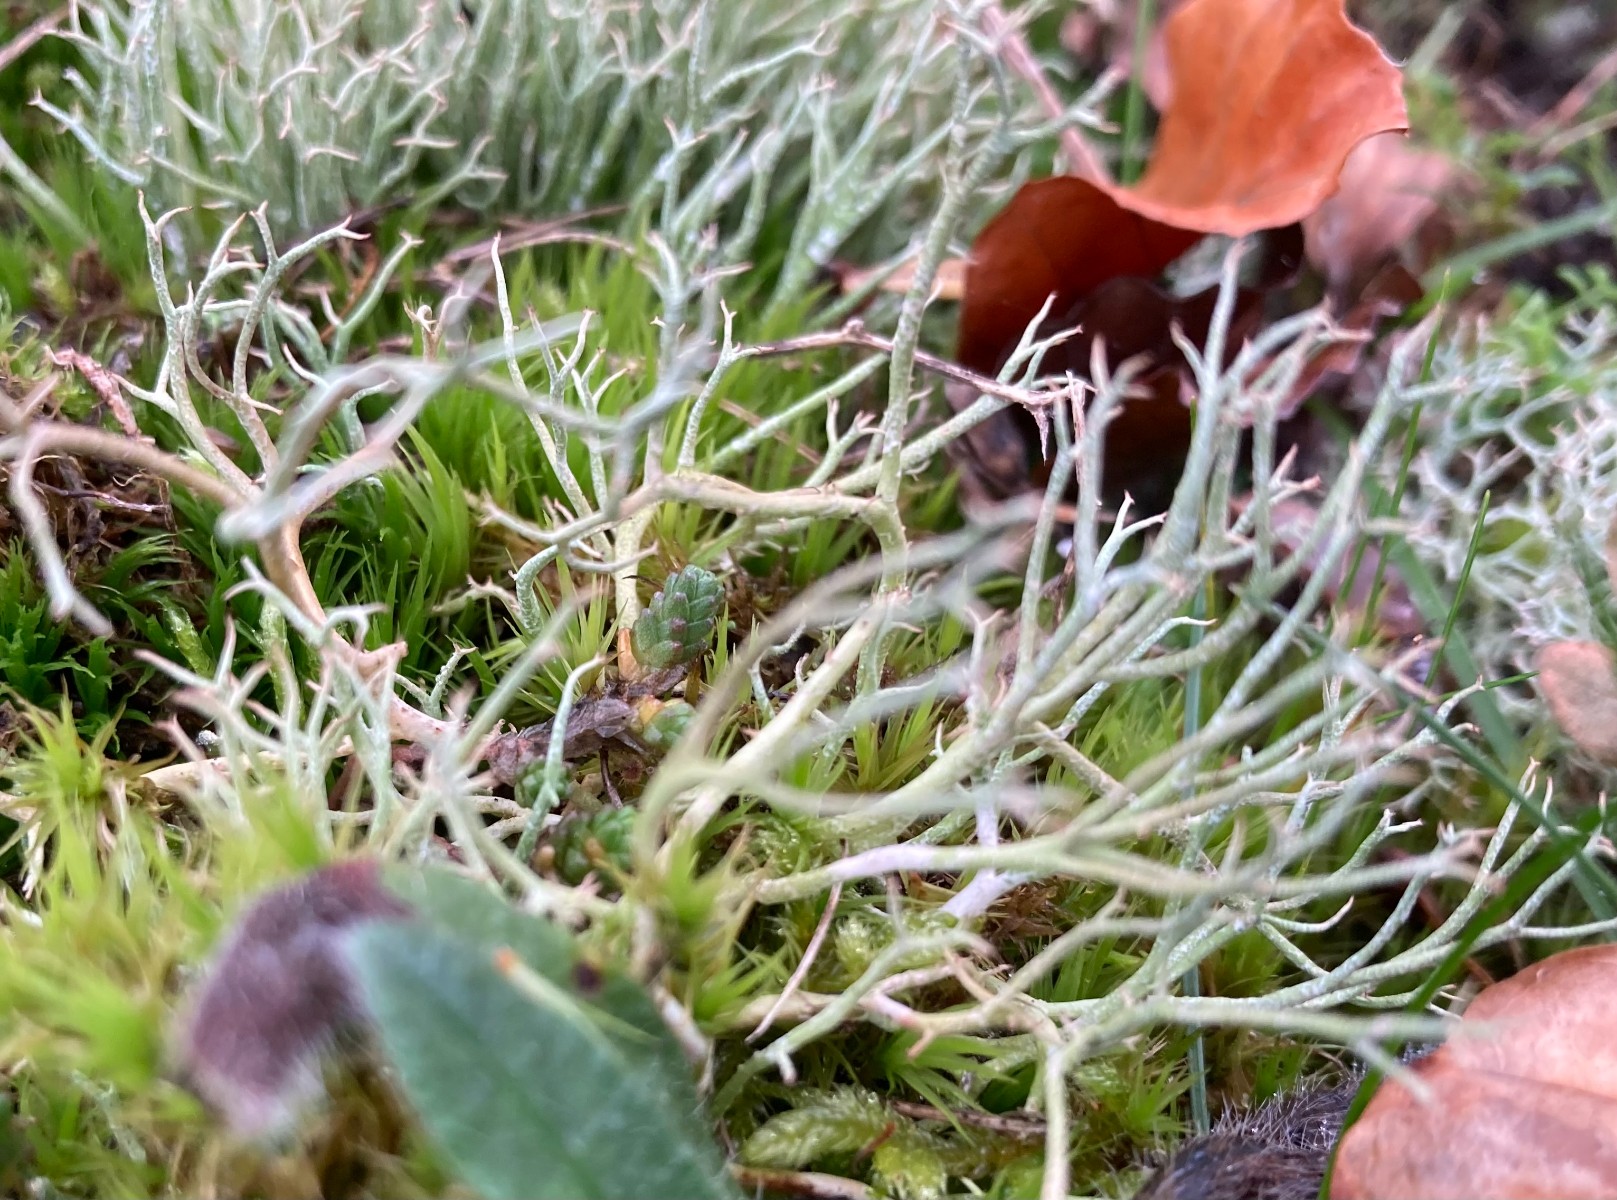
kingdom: Fungi
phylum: Ascomycota
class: Lecanoromycetes
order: Lecanorales
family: Cladoniaceae
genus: Cladonia
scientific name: Cladonia rangiformis
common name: spættet bægerlav
